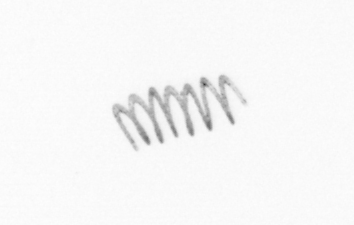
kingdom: Chromista
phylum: Ochrophyta
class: Bacillariophyceae
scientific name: Bacillariophyceae
